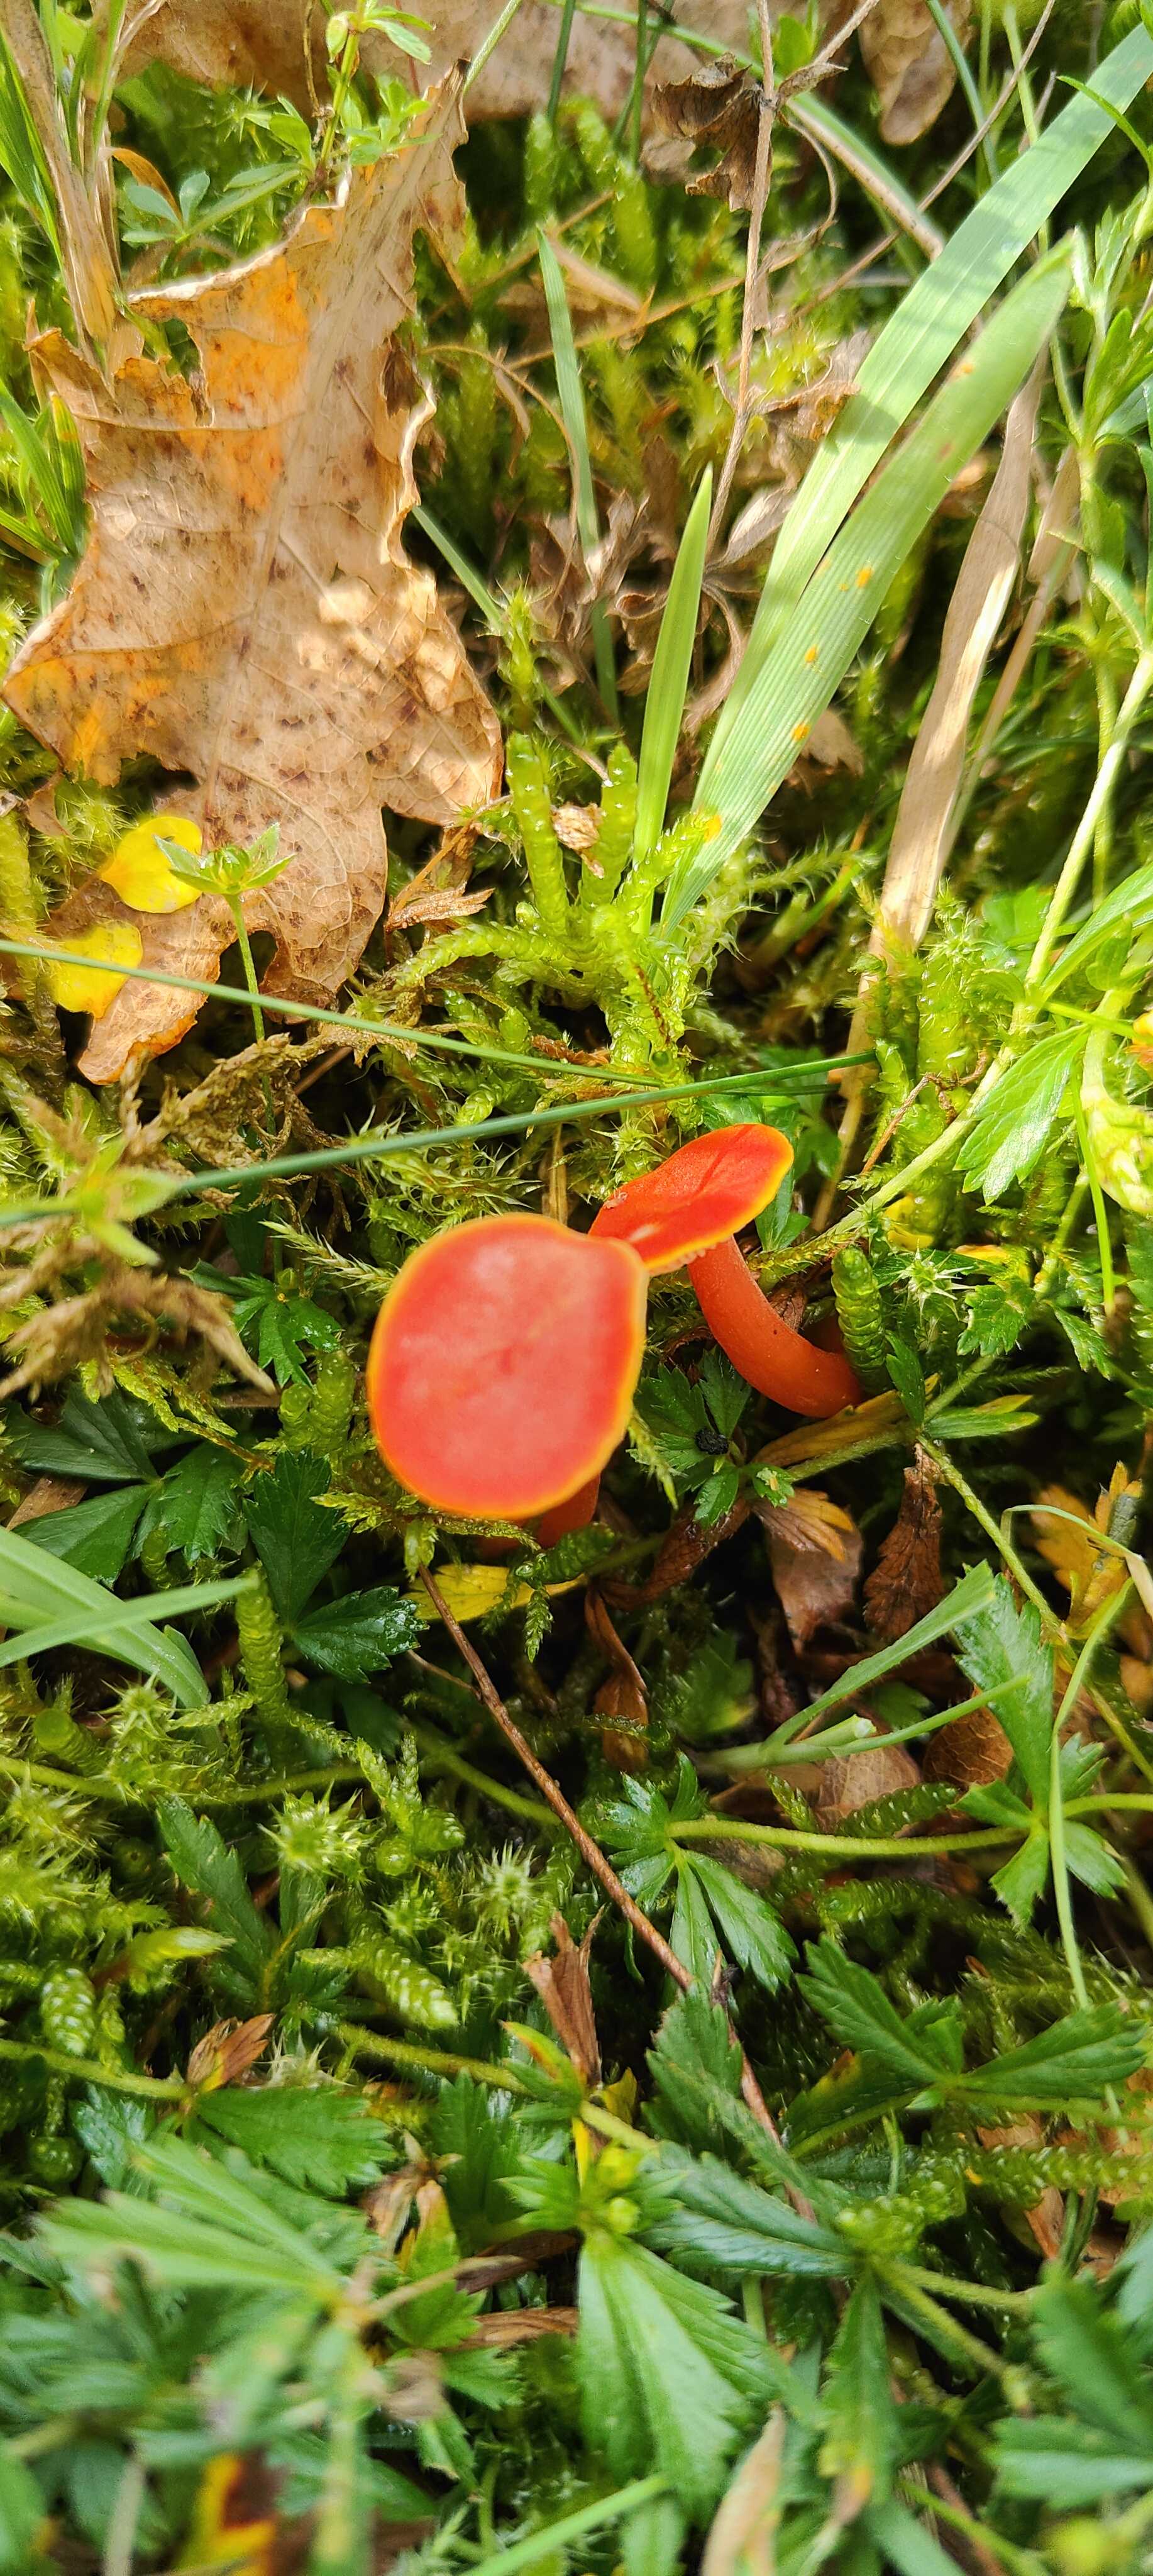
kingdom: Fungi
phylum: Basidiomycota
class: Agaricomycetes
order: Agaricales
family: Hygrophoraceae
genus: Hygrocybe
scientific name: Hygrocybe miniata
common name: mønje-vokshat
